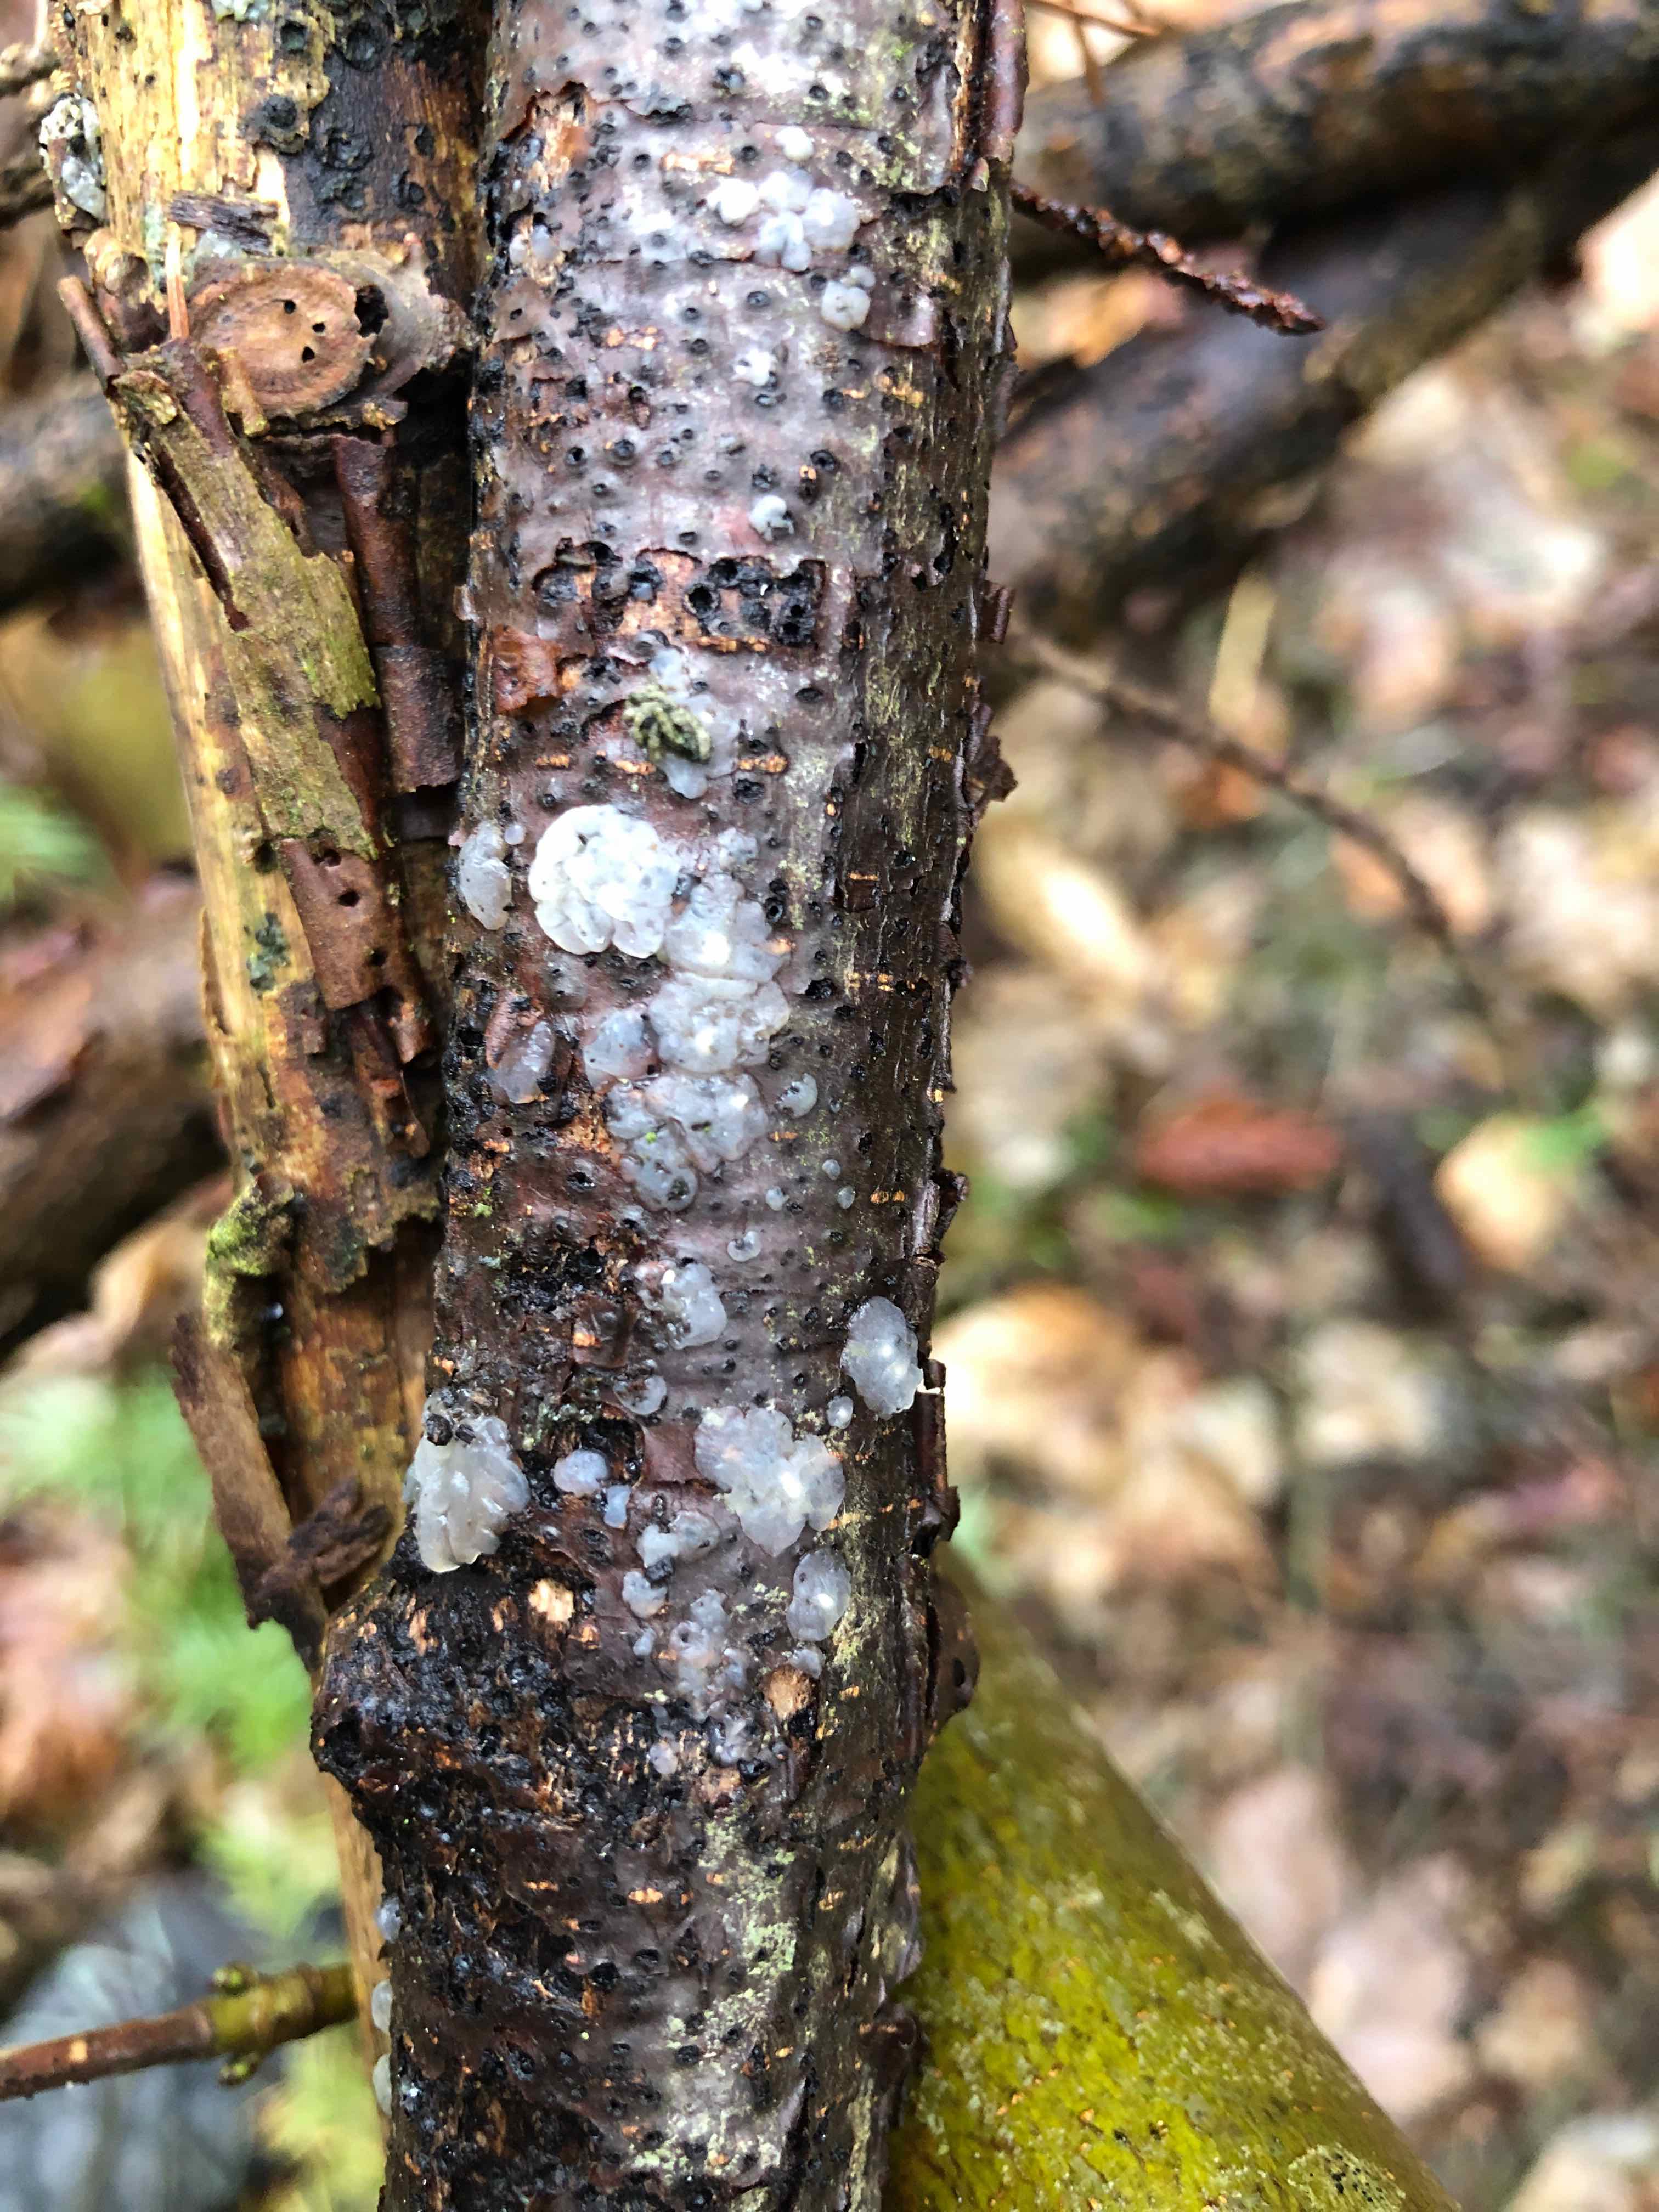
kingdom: Fungi
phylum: Basidiomycota
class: Agaricomycetes
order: Auriculariales
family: Hyaloriaceae
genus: Myxarium
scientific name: Myxarium nucleatum
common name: klar bævretop
